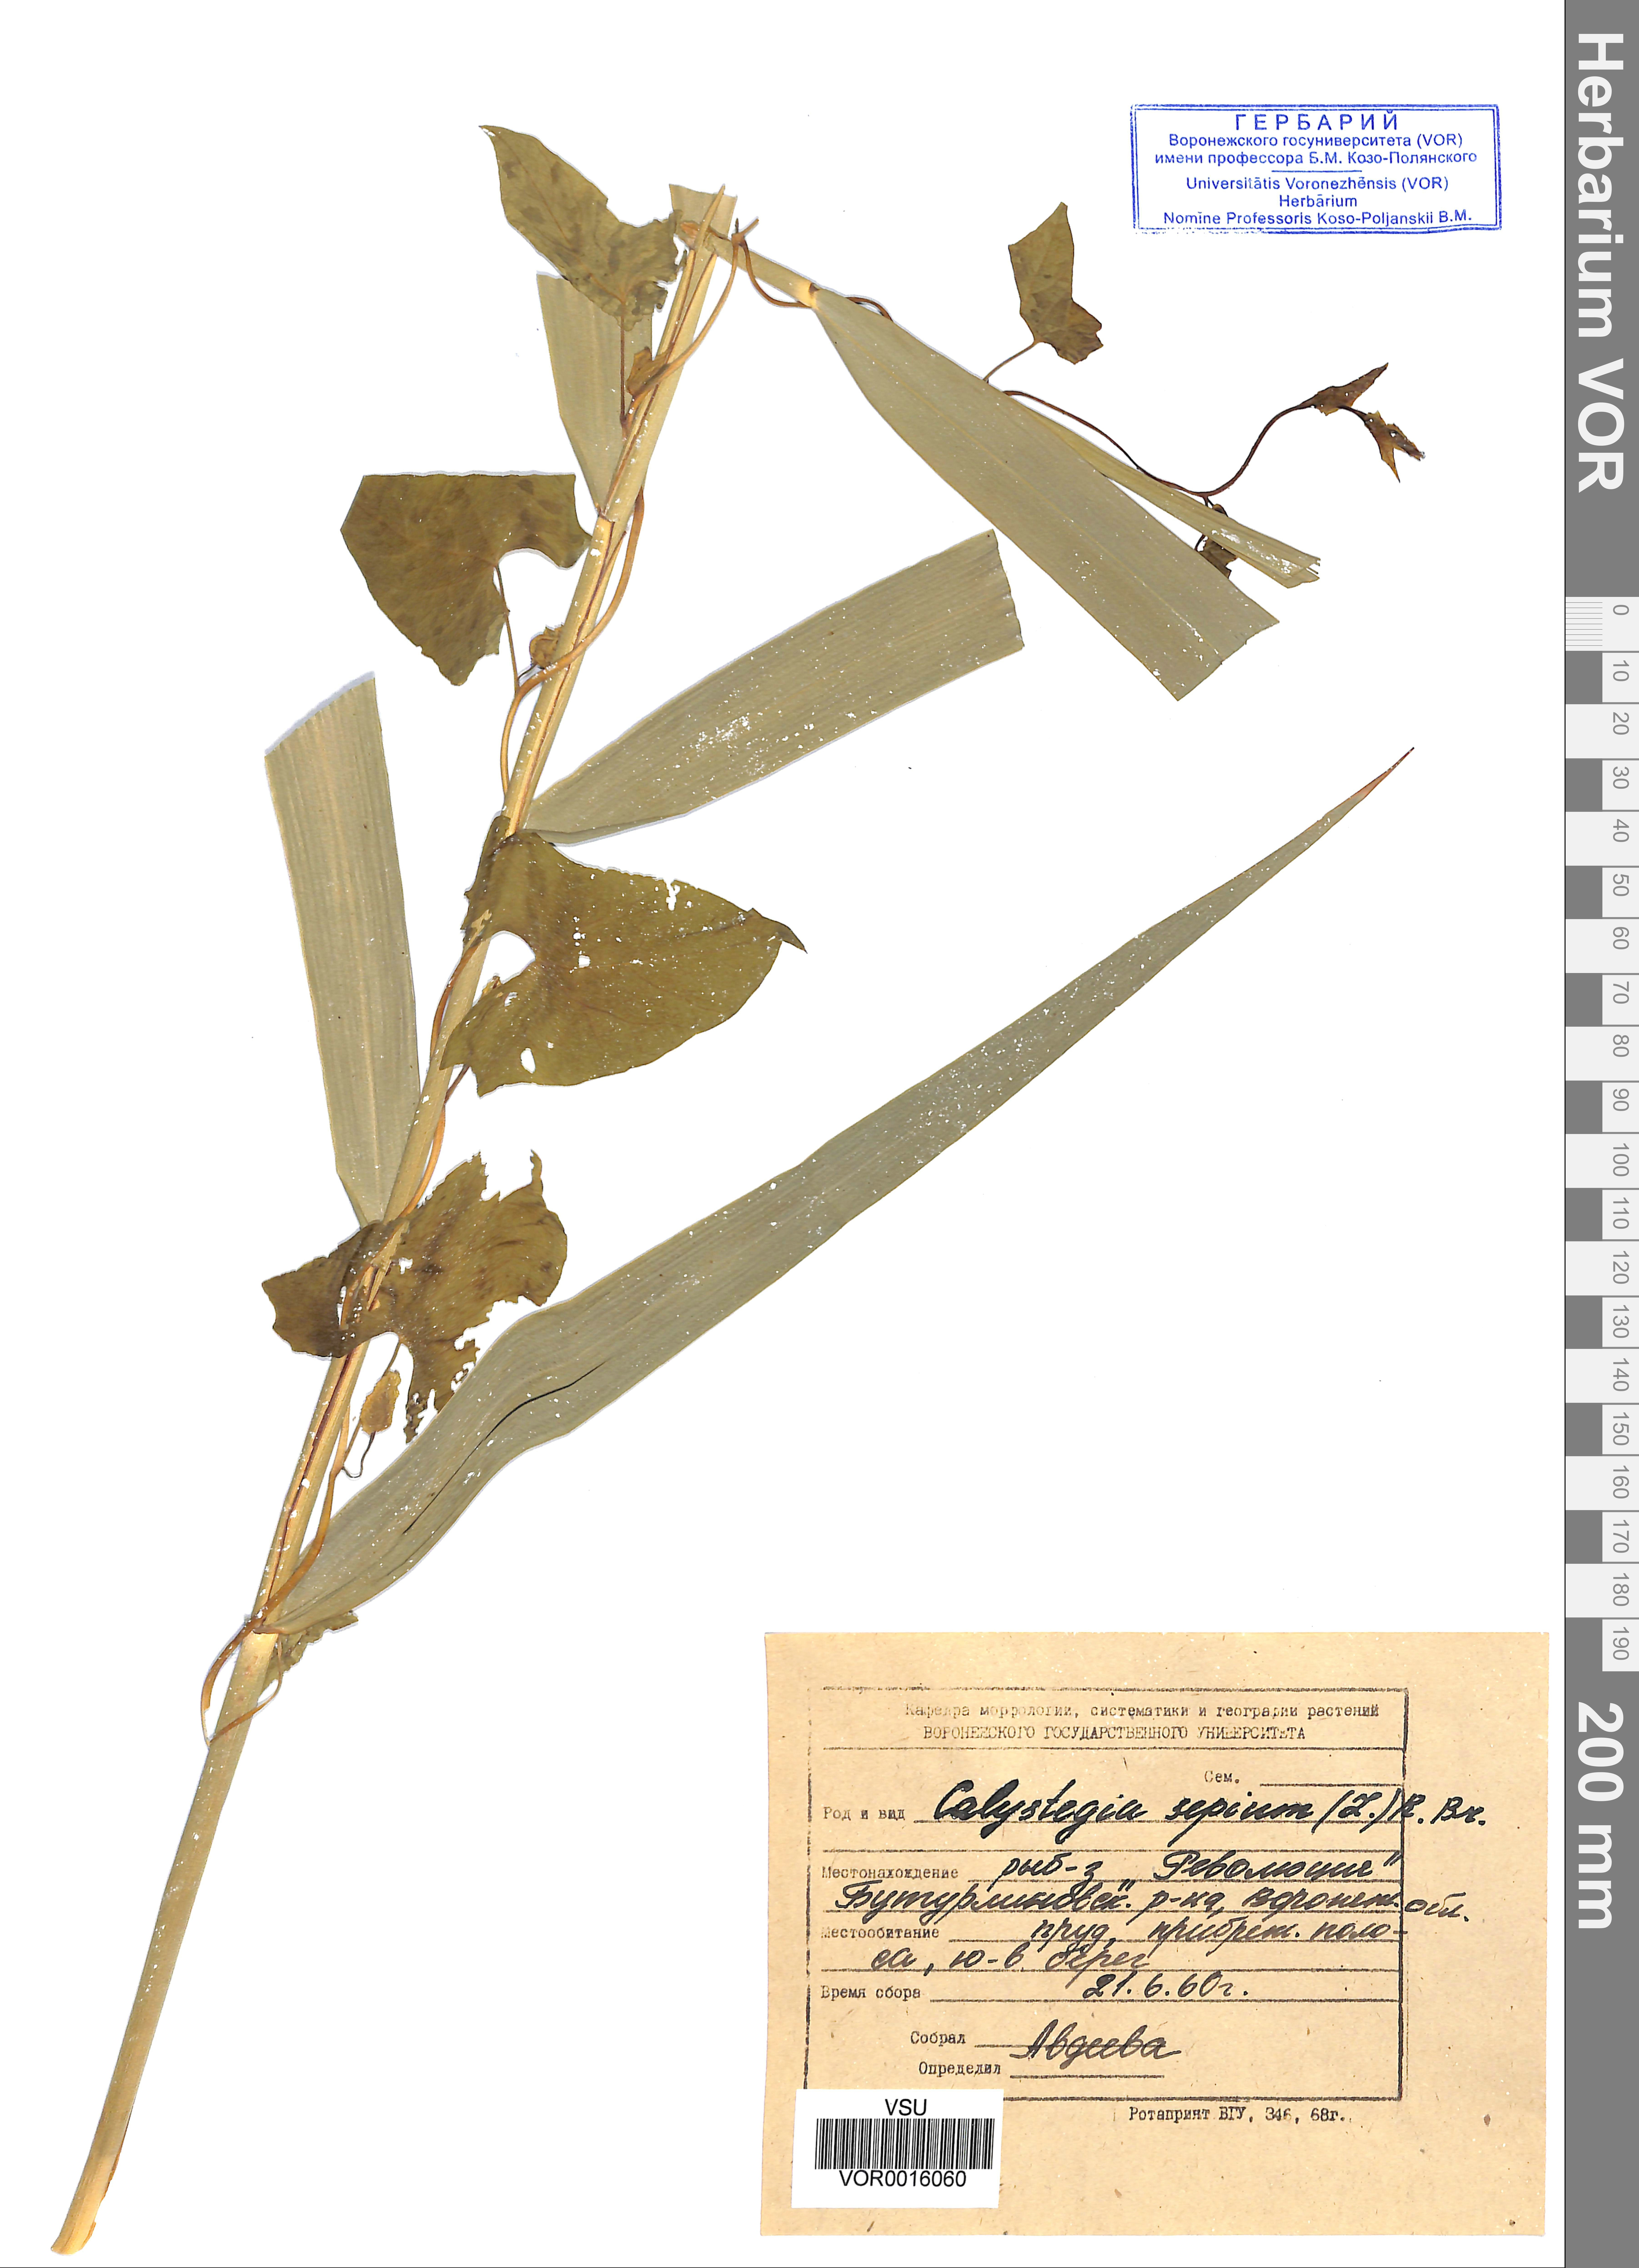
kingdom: Plantae
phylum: Tracheophyta
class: Magnoliopsida
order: Solanales
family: Convolvulaceae
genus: Calystegia
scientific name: Calystegia sepium
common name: Hedge bindweed
